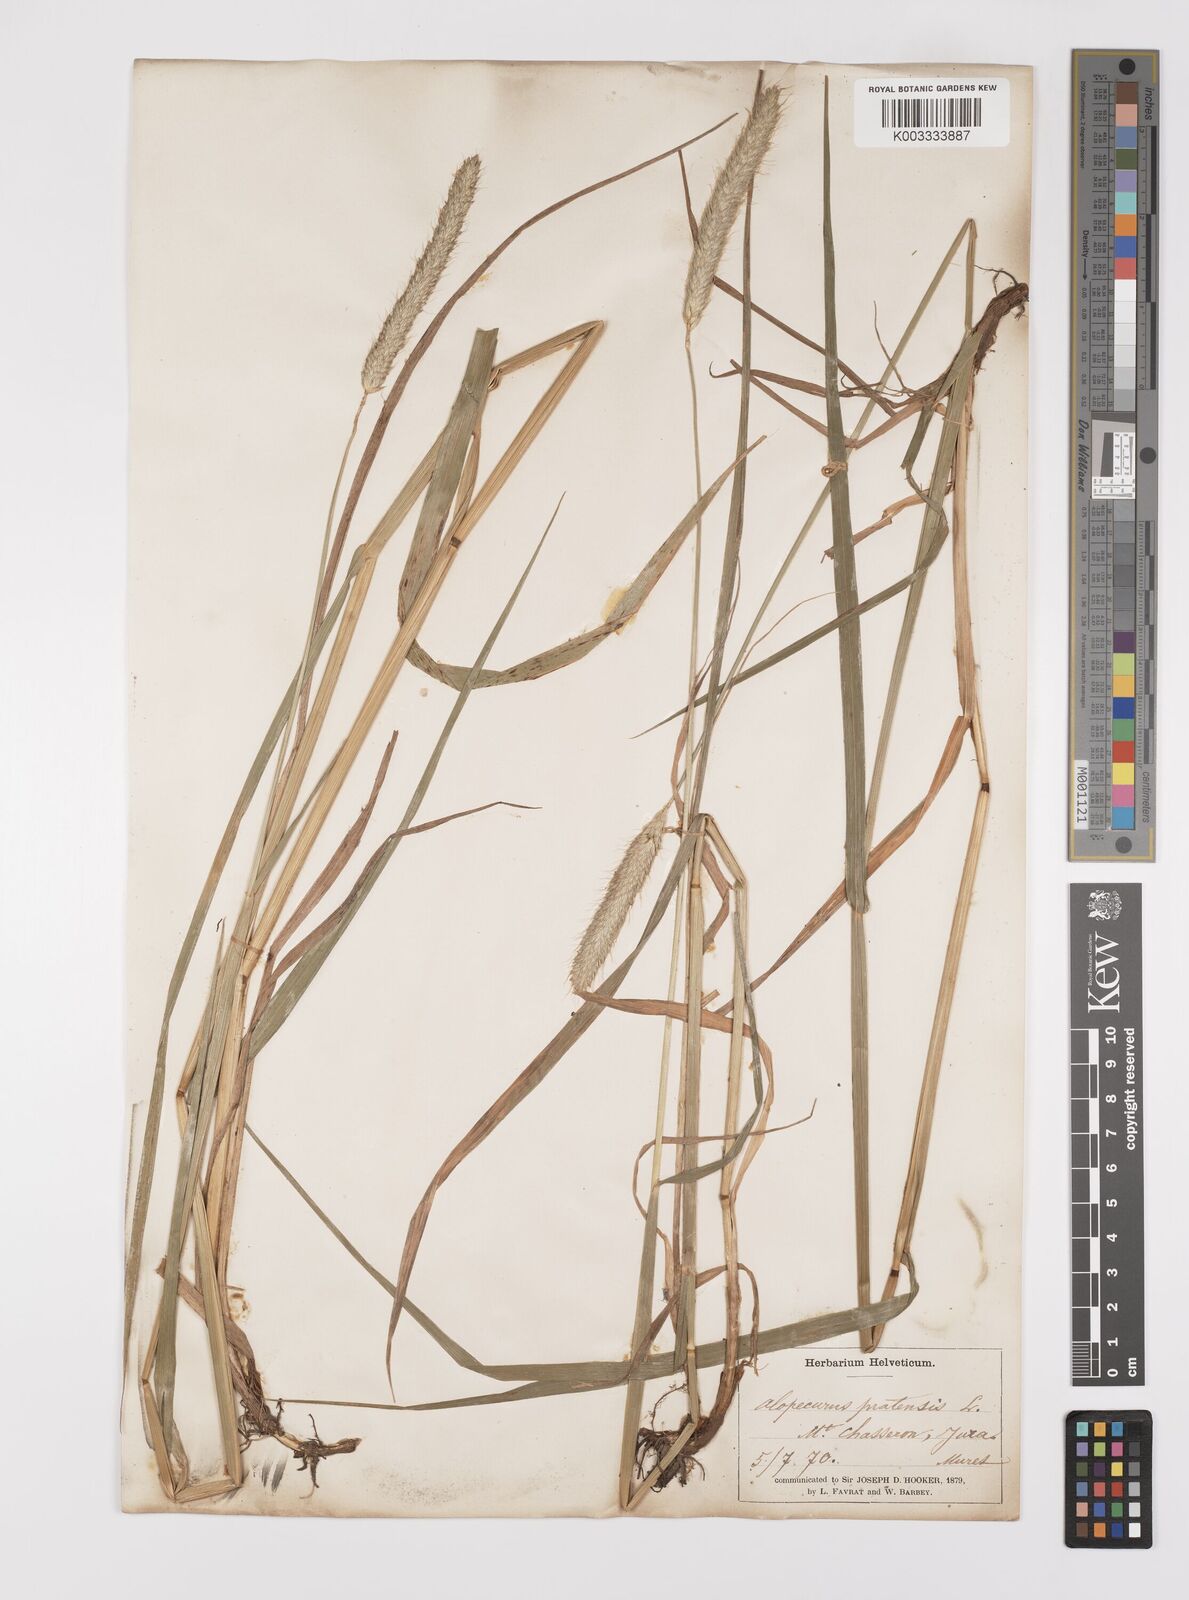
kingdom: Plantae
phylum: Tracheophyta
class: Liliopsida
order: Poales
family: Poaceae
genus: Alopecurus
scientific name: Alopecurus pratensis
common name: Meadow foxtail
